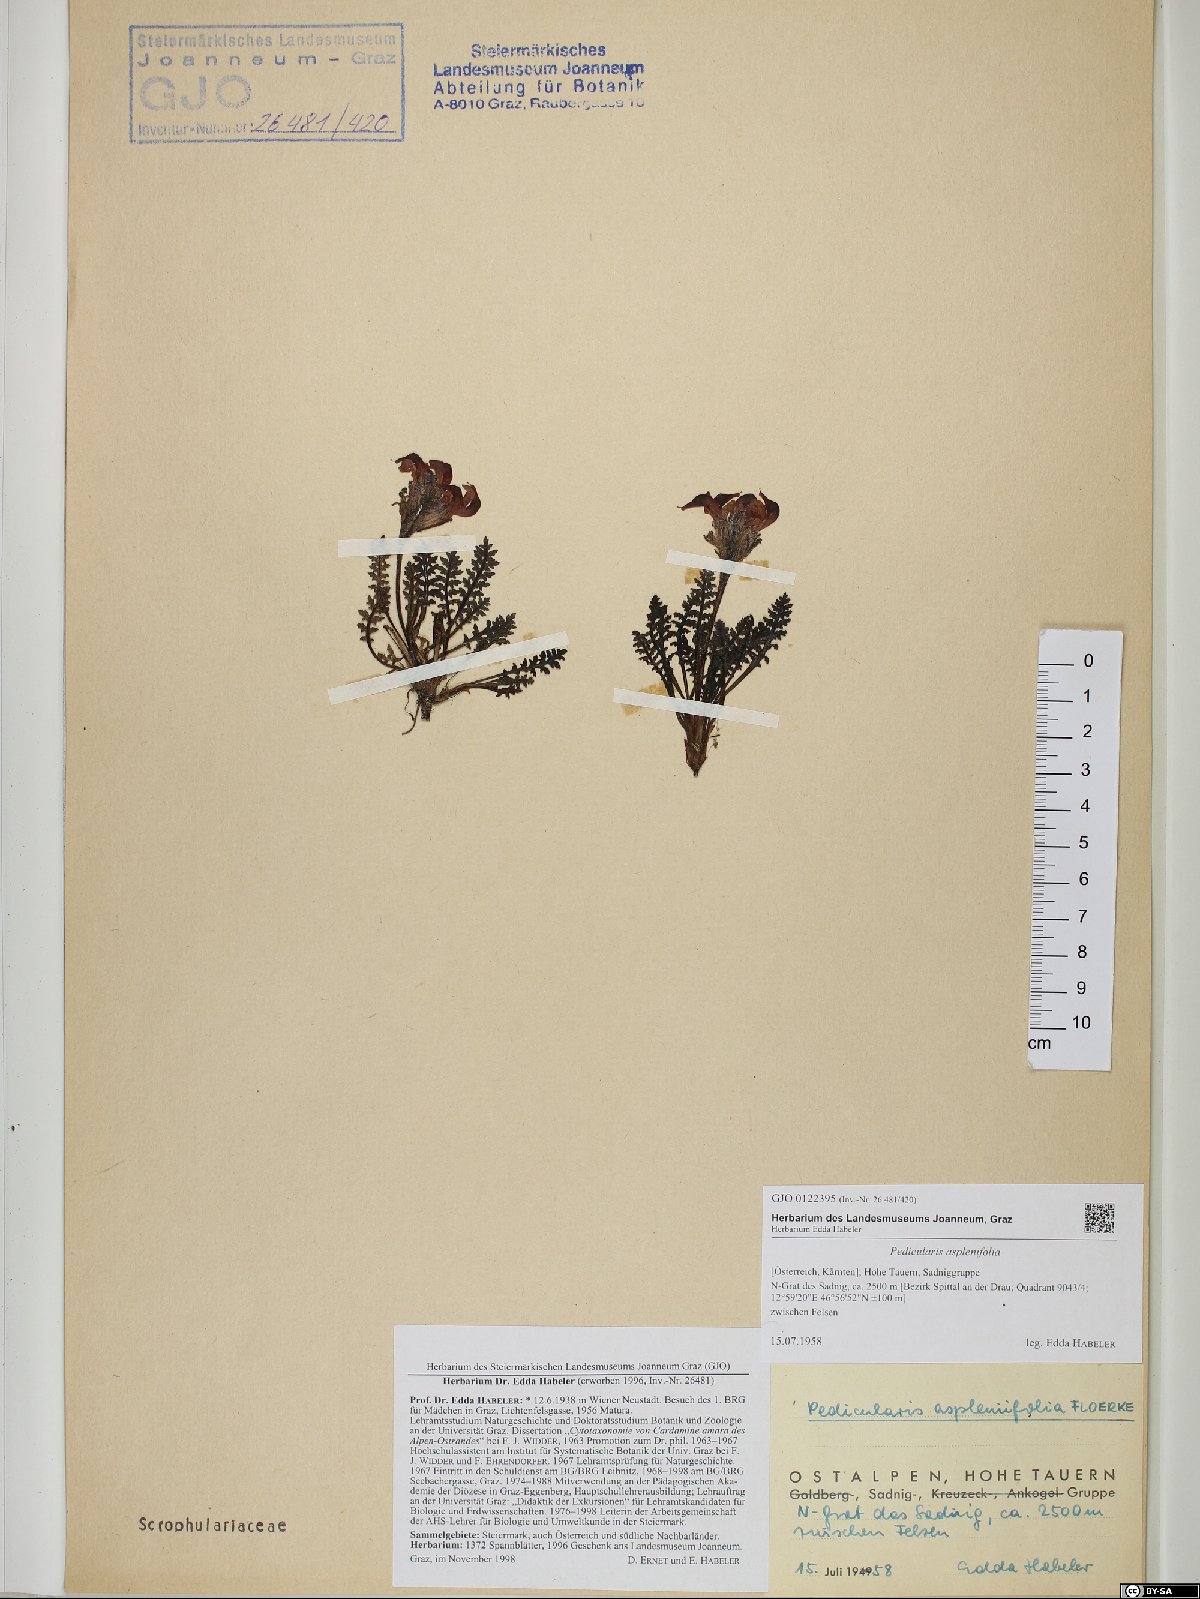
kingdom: Plantae
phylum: Tracheophyta
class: Magnoliopsida
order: Lamiales
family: Orobanchaceae
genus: Pedicularis
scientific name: Pedicularis asplenifolia
